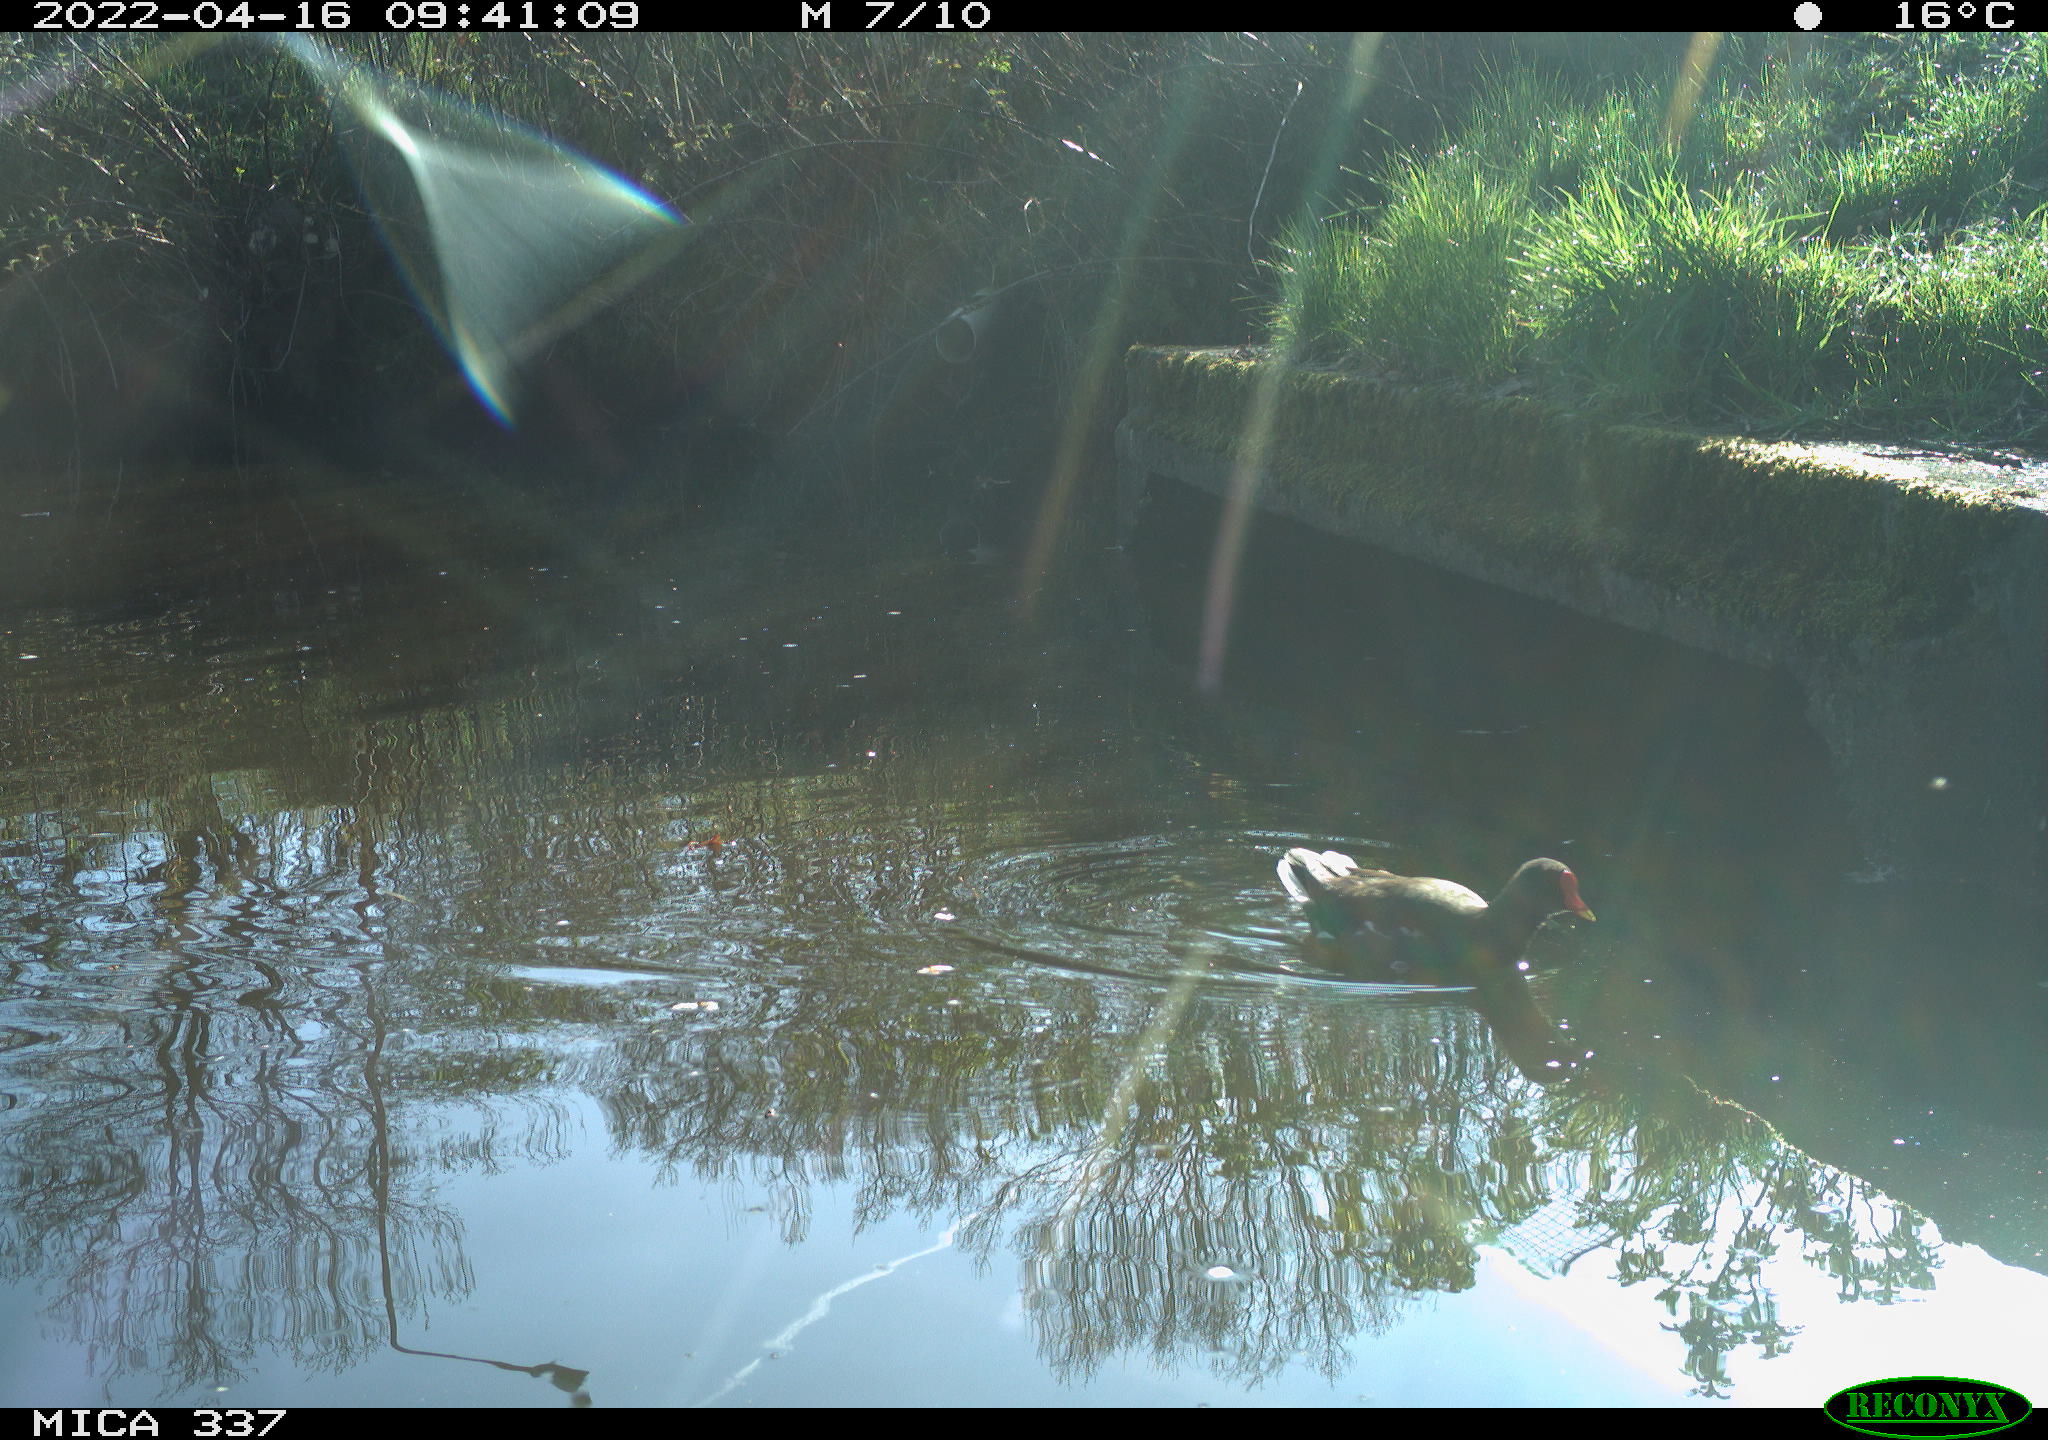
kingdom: Animalia
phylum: Chordata
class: Aves
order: Gruiformes
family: Rallidae
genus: Gallinula
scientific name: Gallinula chloropus
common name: Common moorhen
